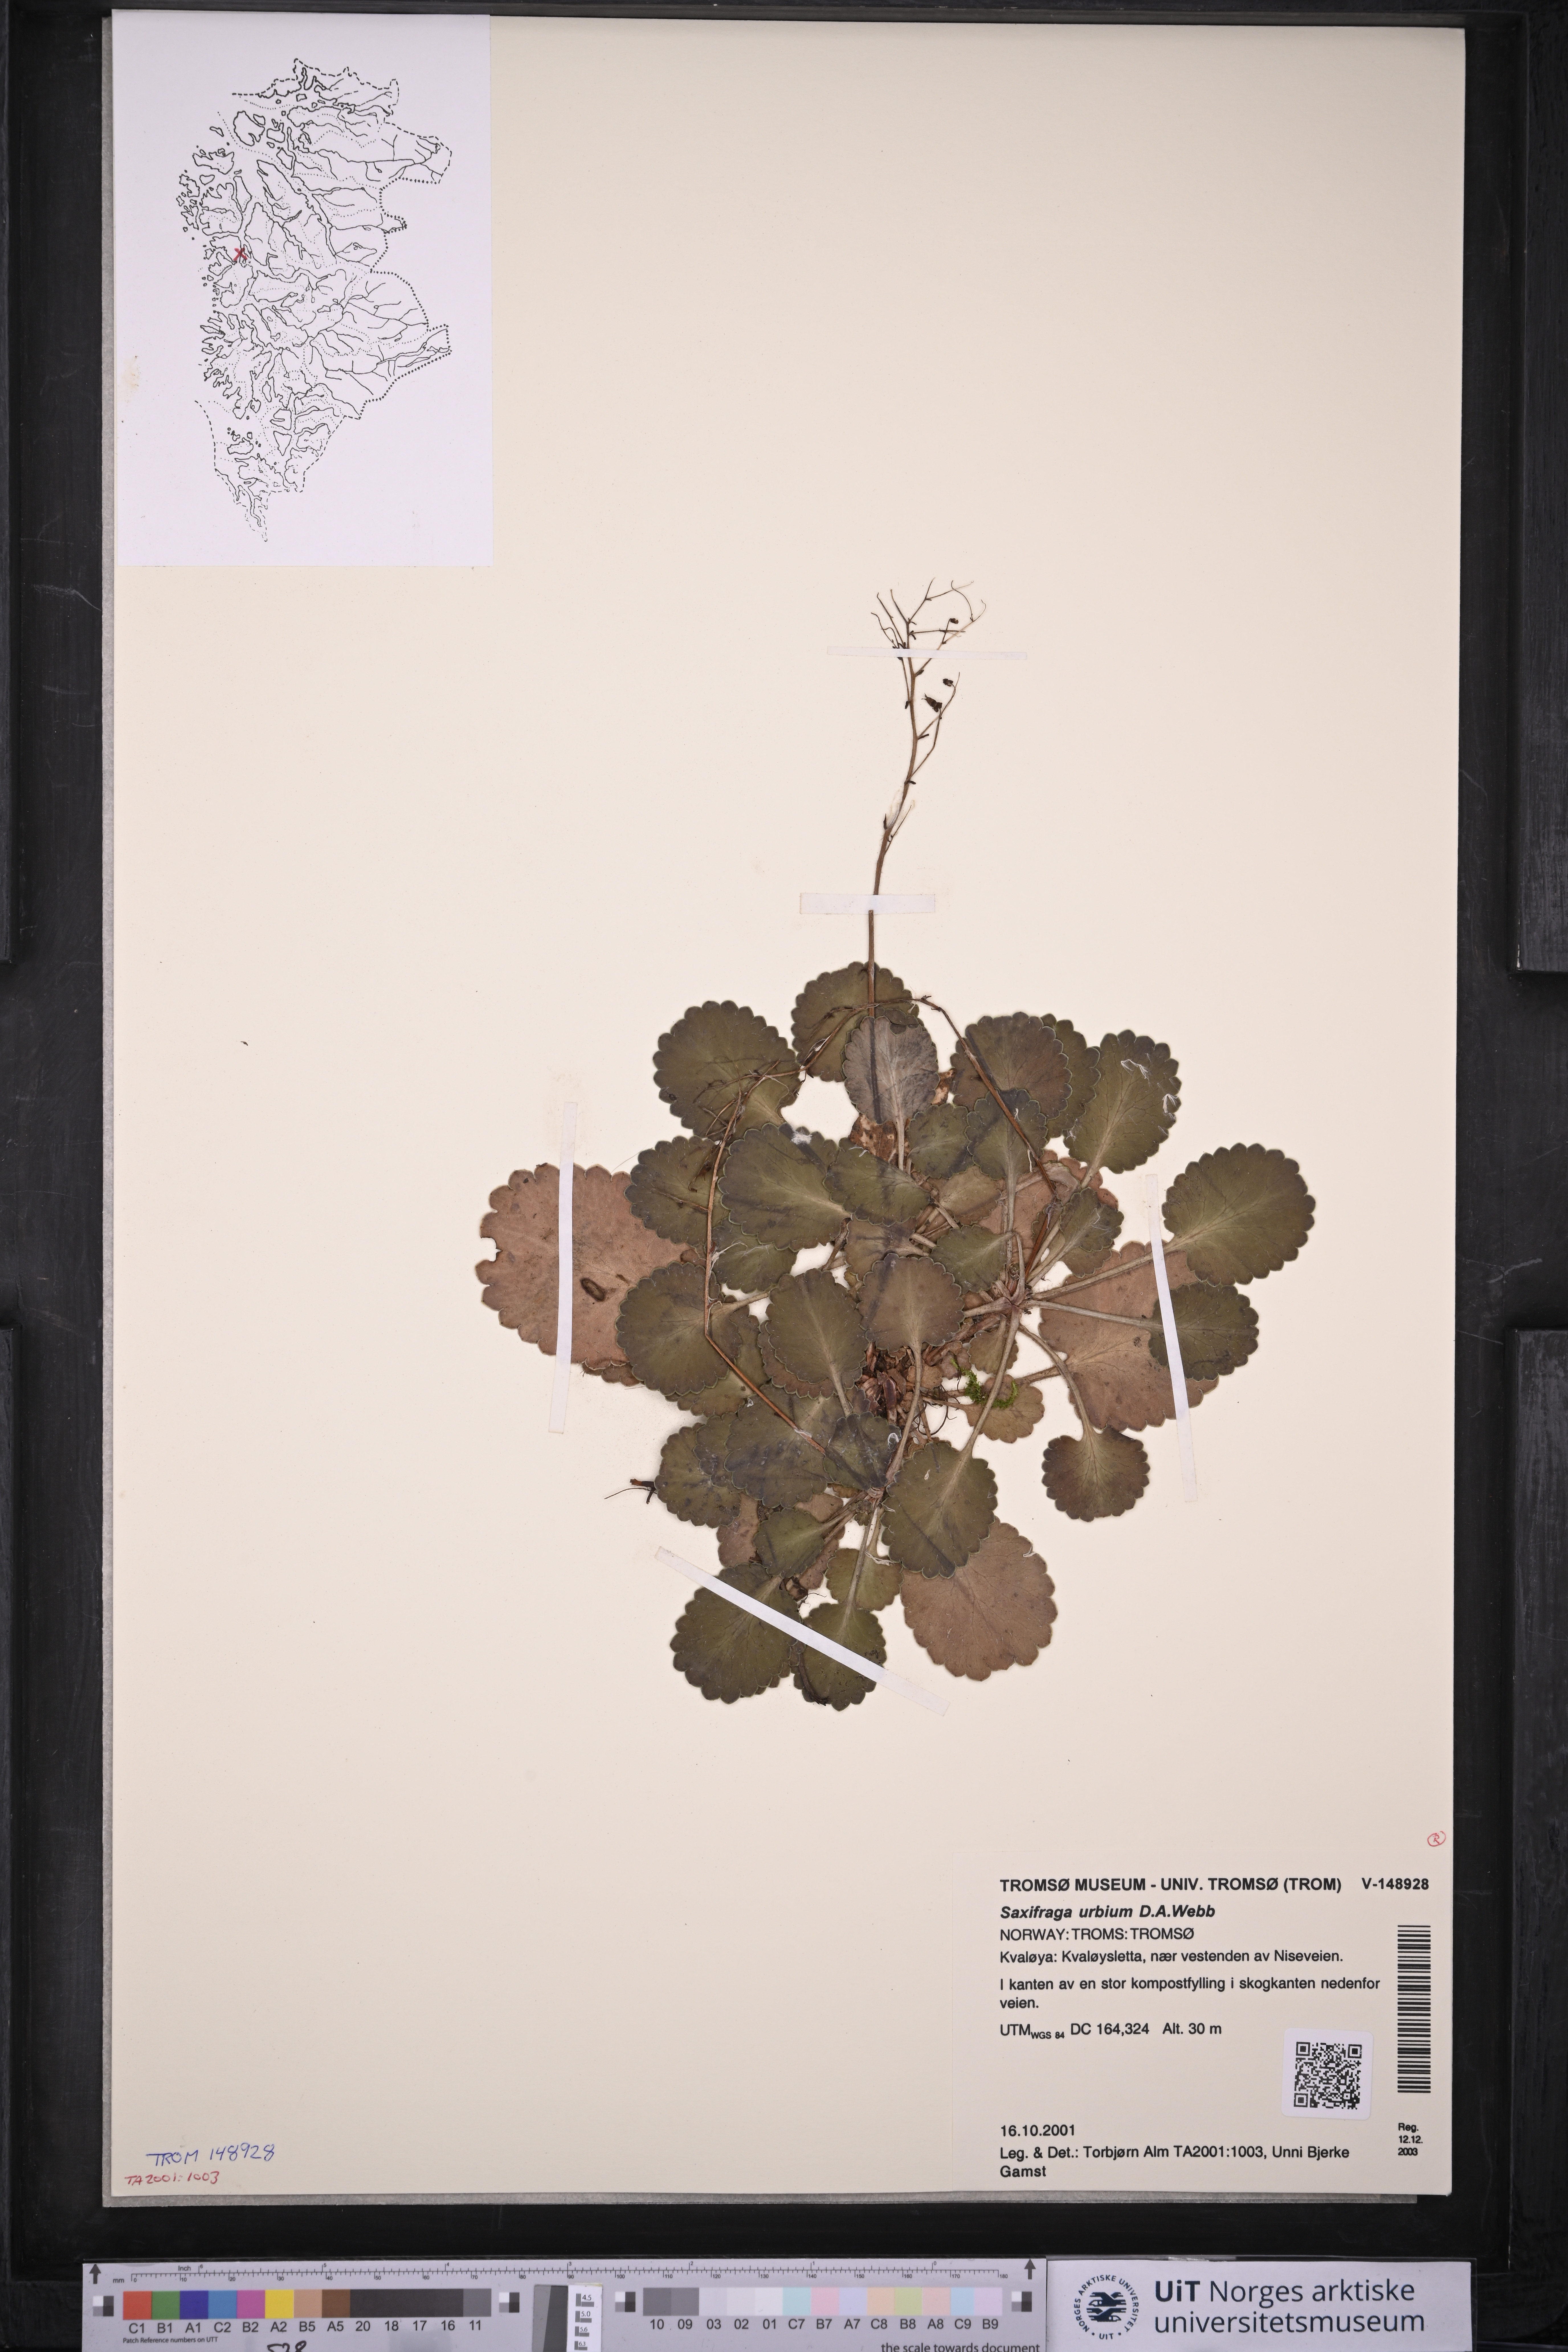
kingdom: Plantae
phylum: Tracheophyta
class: Magnoliopsida
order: Saxifragales
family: Saxifragaceae
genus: Saxifraga
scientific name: Saxifraga urbium
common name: Londonpride
